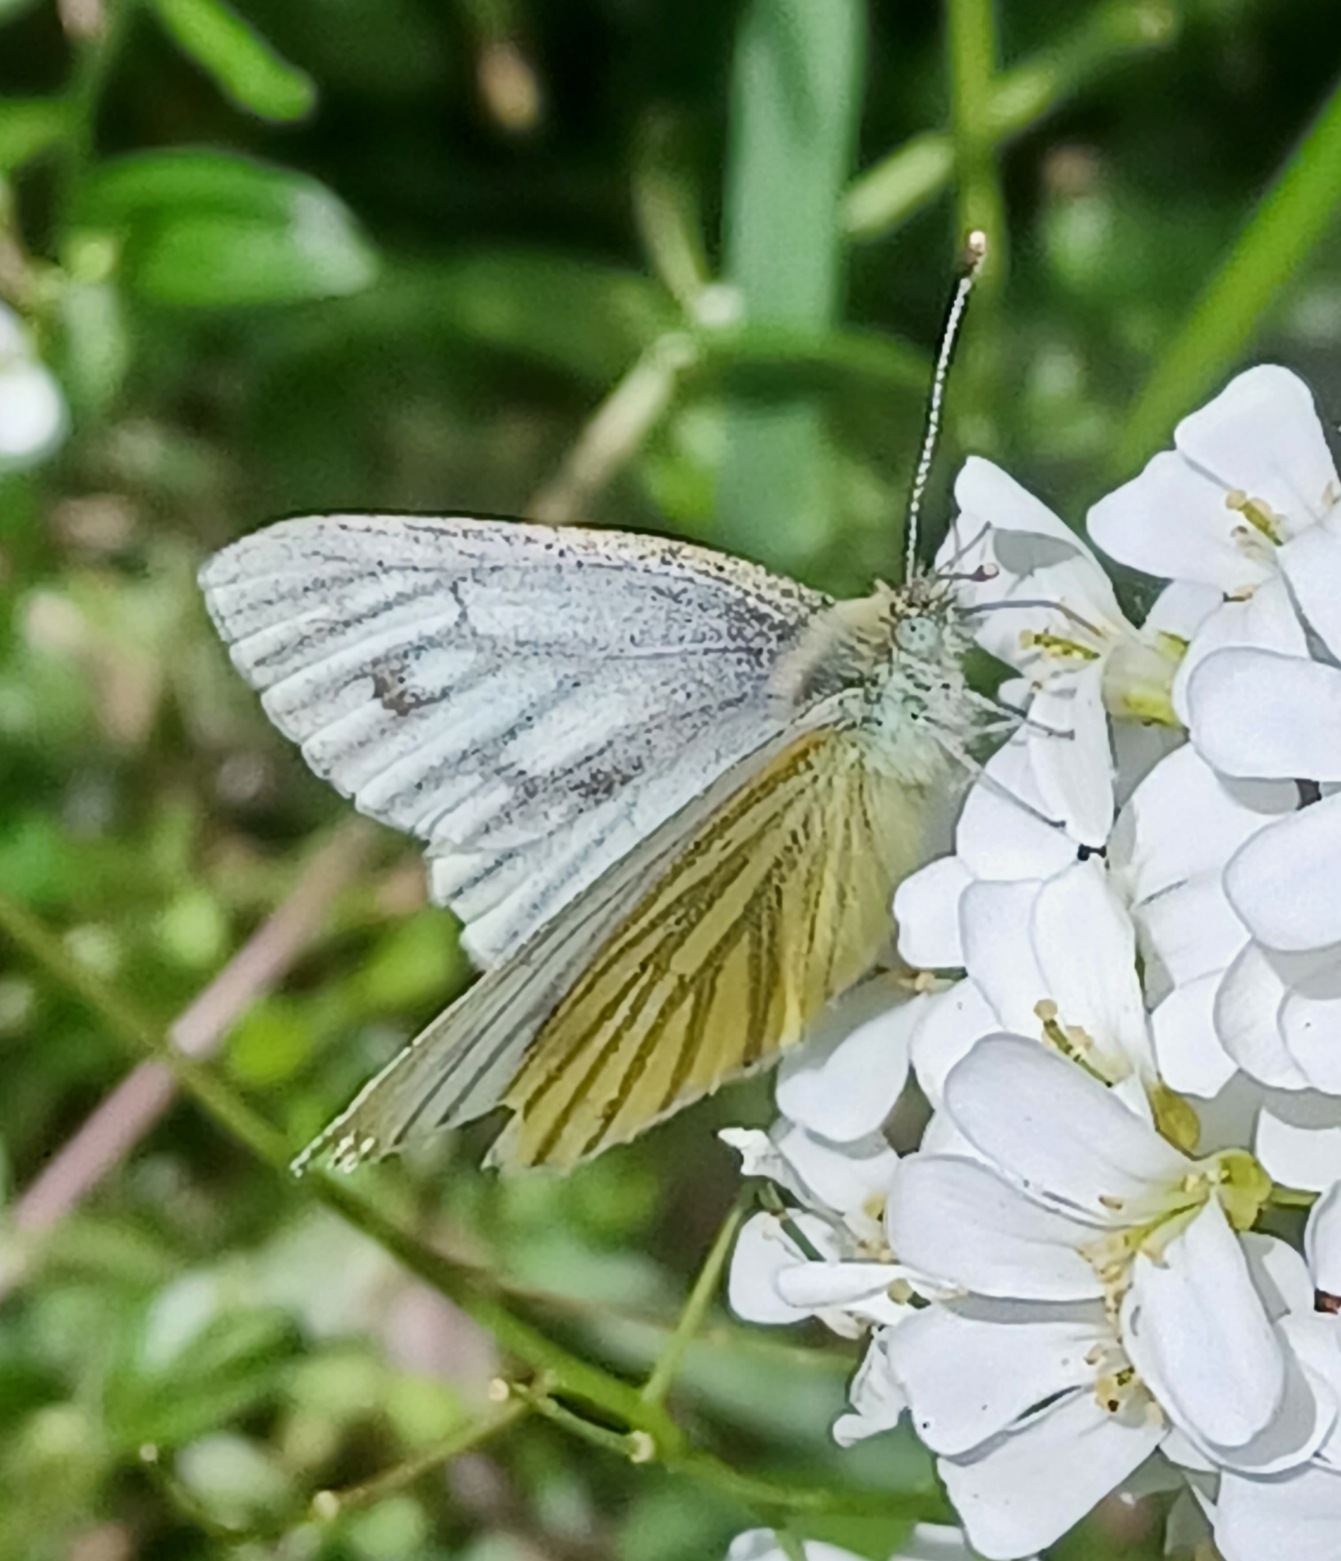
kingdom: Animalia
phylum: Arthropoda
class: Insecta
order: Lepidoptera
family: Pieridae
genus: Pieris
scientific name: Pieris napi
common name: Grønåret kålsommerfugl
